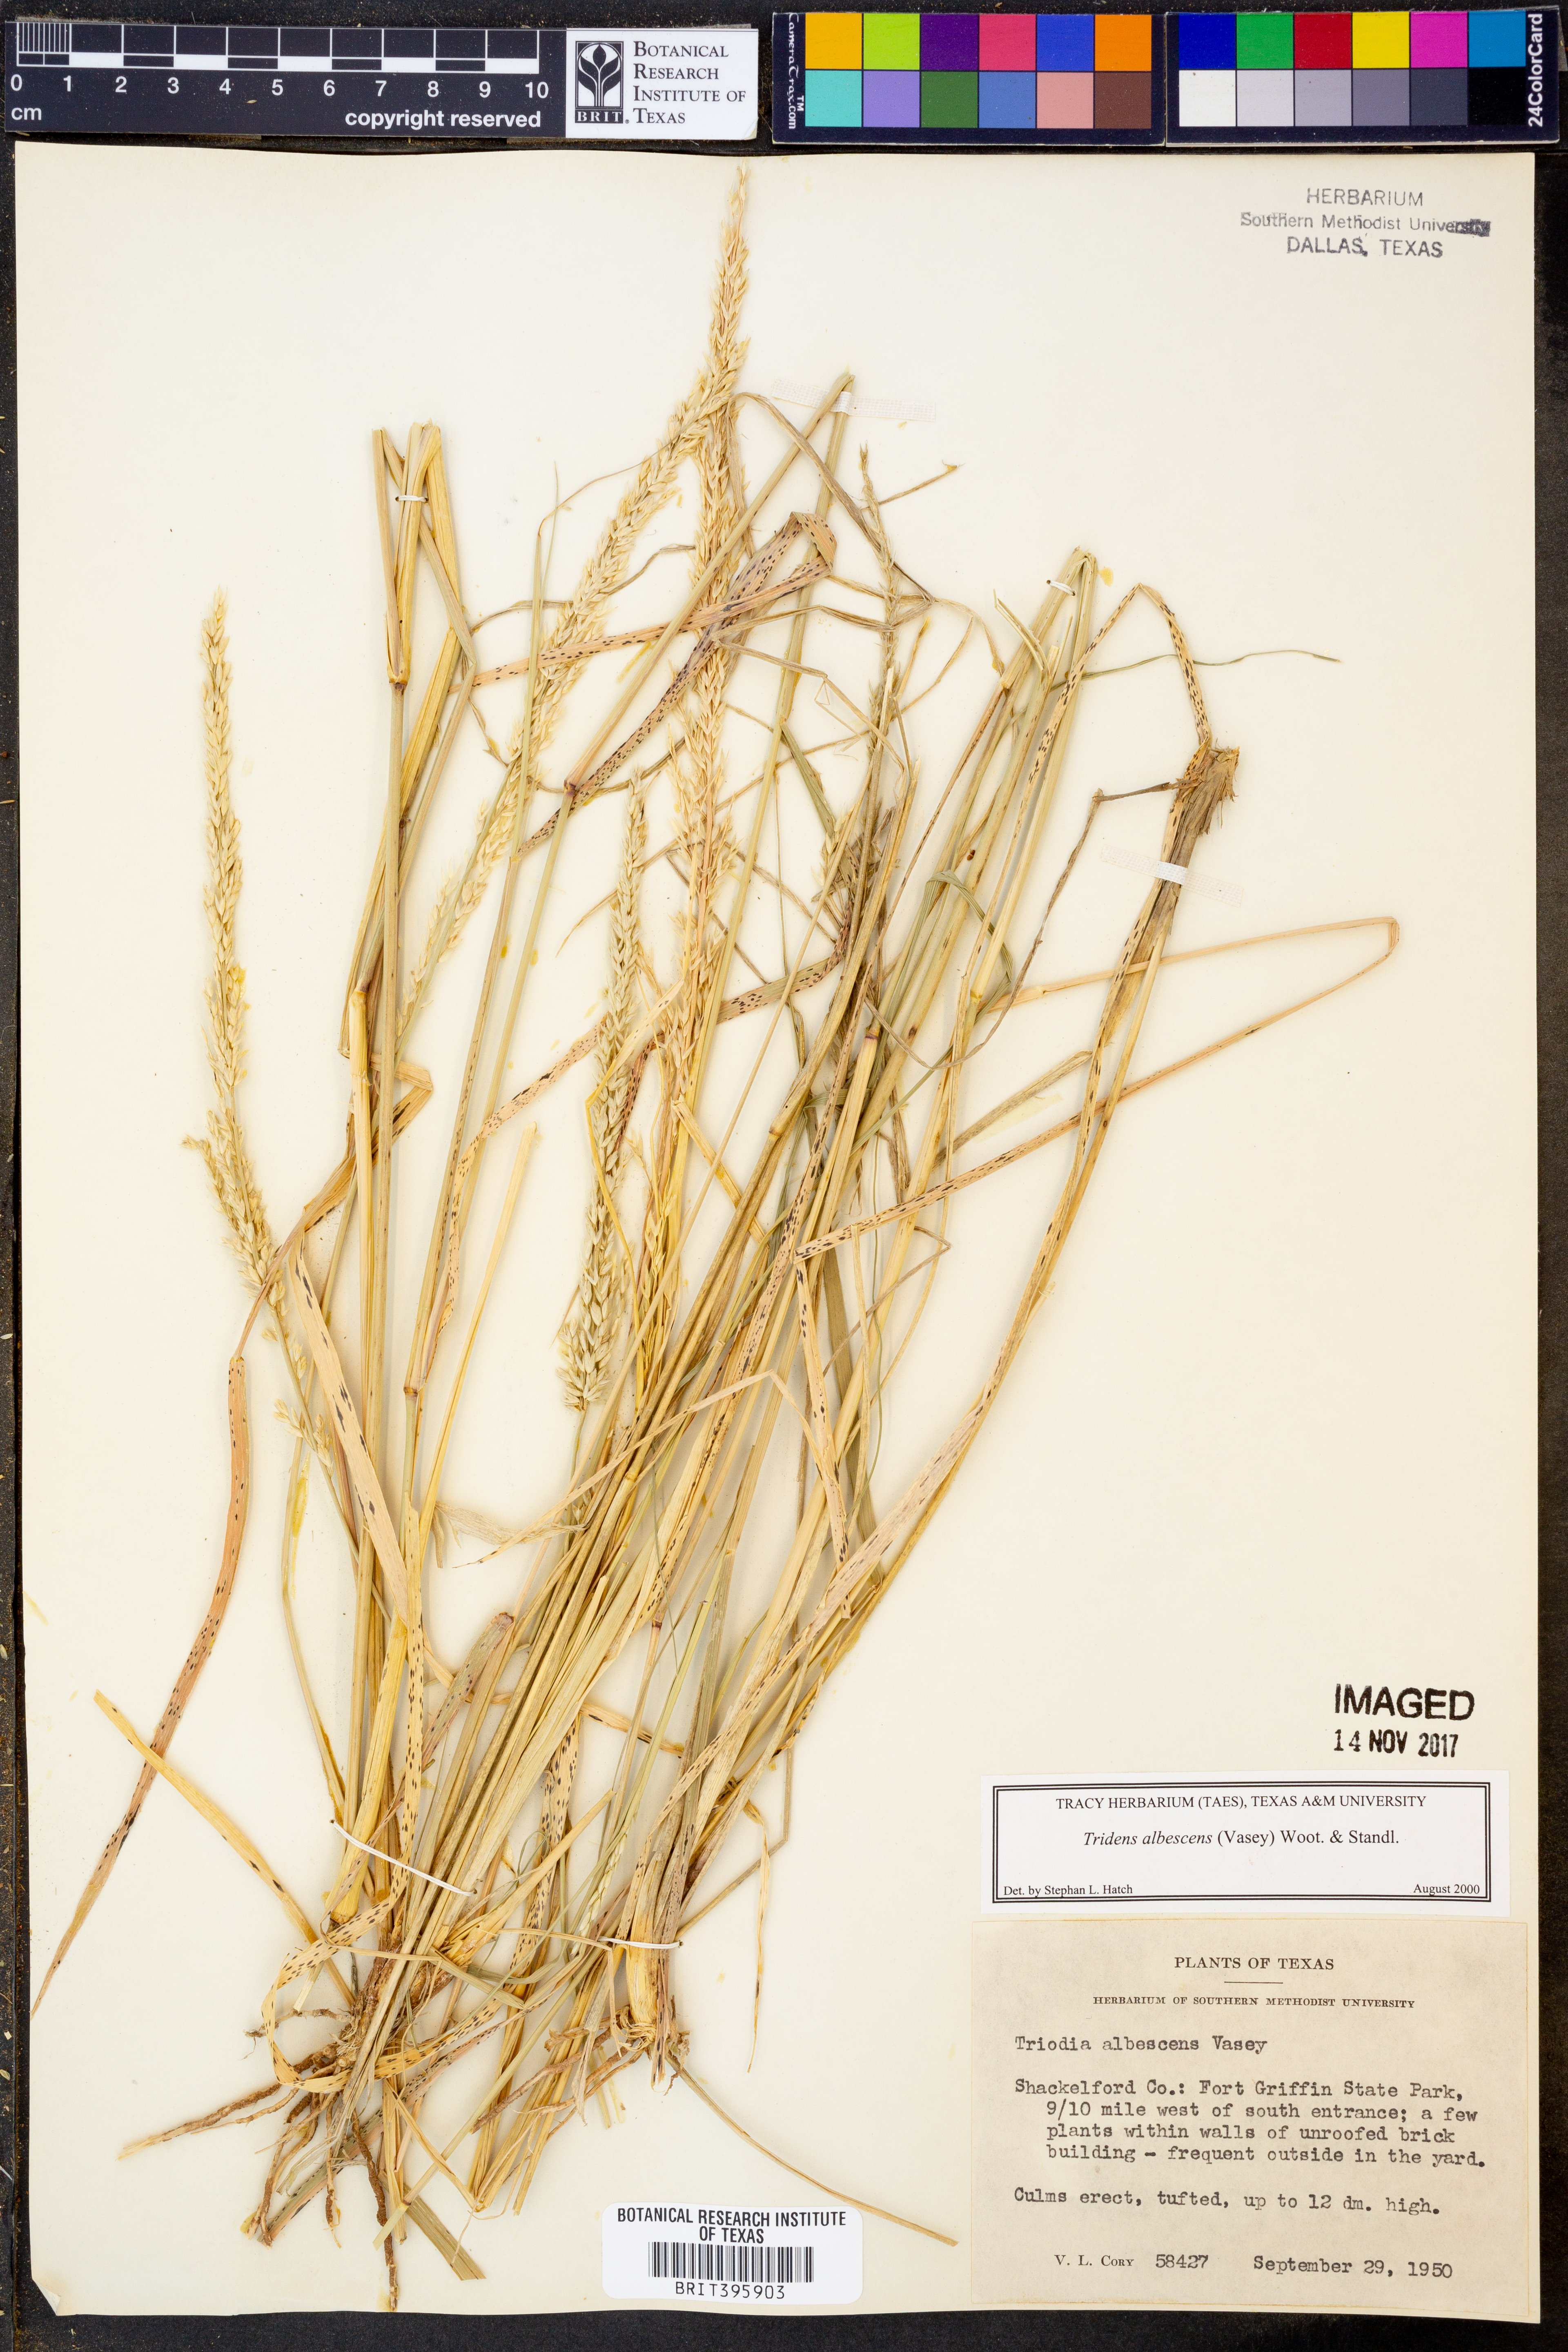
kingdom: Plantae
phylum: Tracheophyta
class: Liliopsida
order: Poales
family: Poaceae
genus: Tridens
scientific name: Tridens albescens
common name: White tridens
